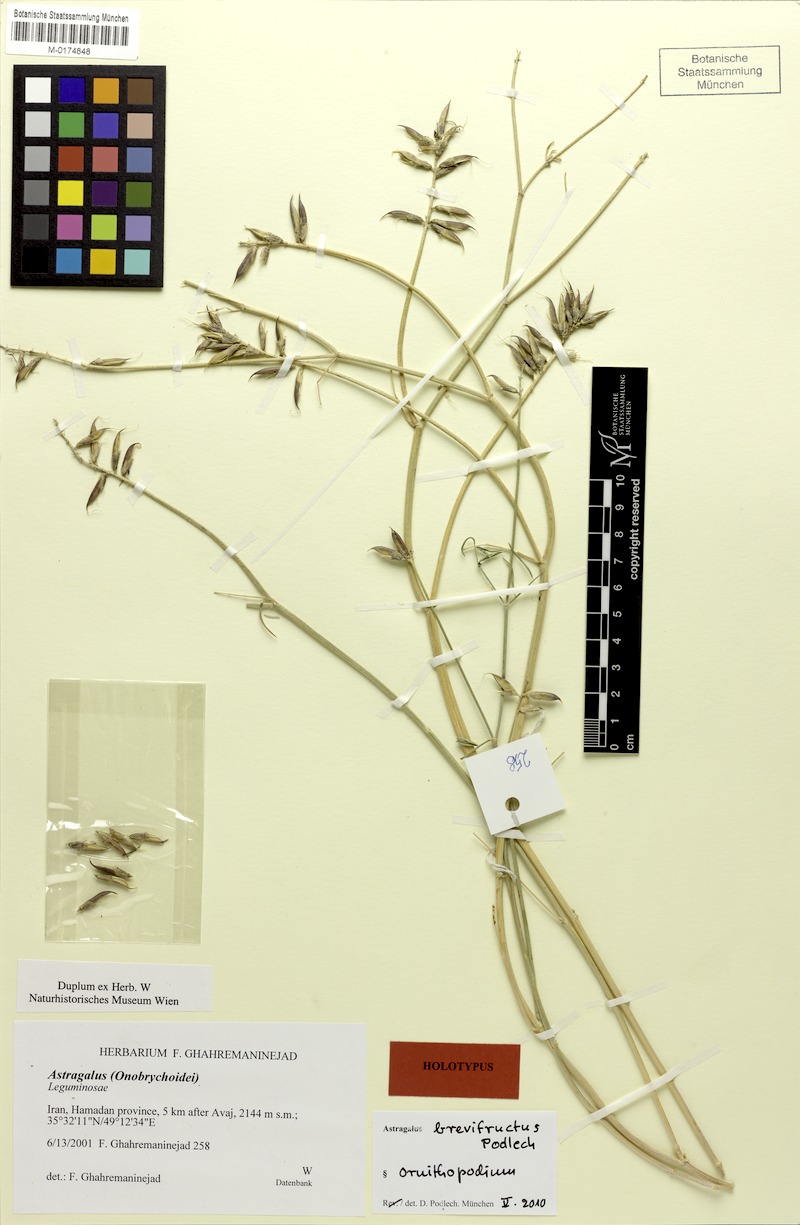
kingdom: Plantae
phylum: Tracheophyta
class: Magnoliopsida
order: Fabales
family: Fabaceae
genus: Astragalus
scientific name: Astragalus brevifructus
